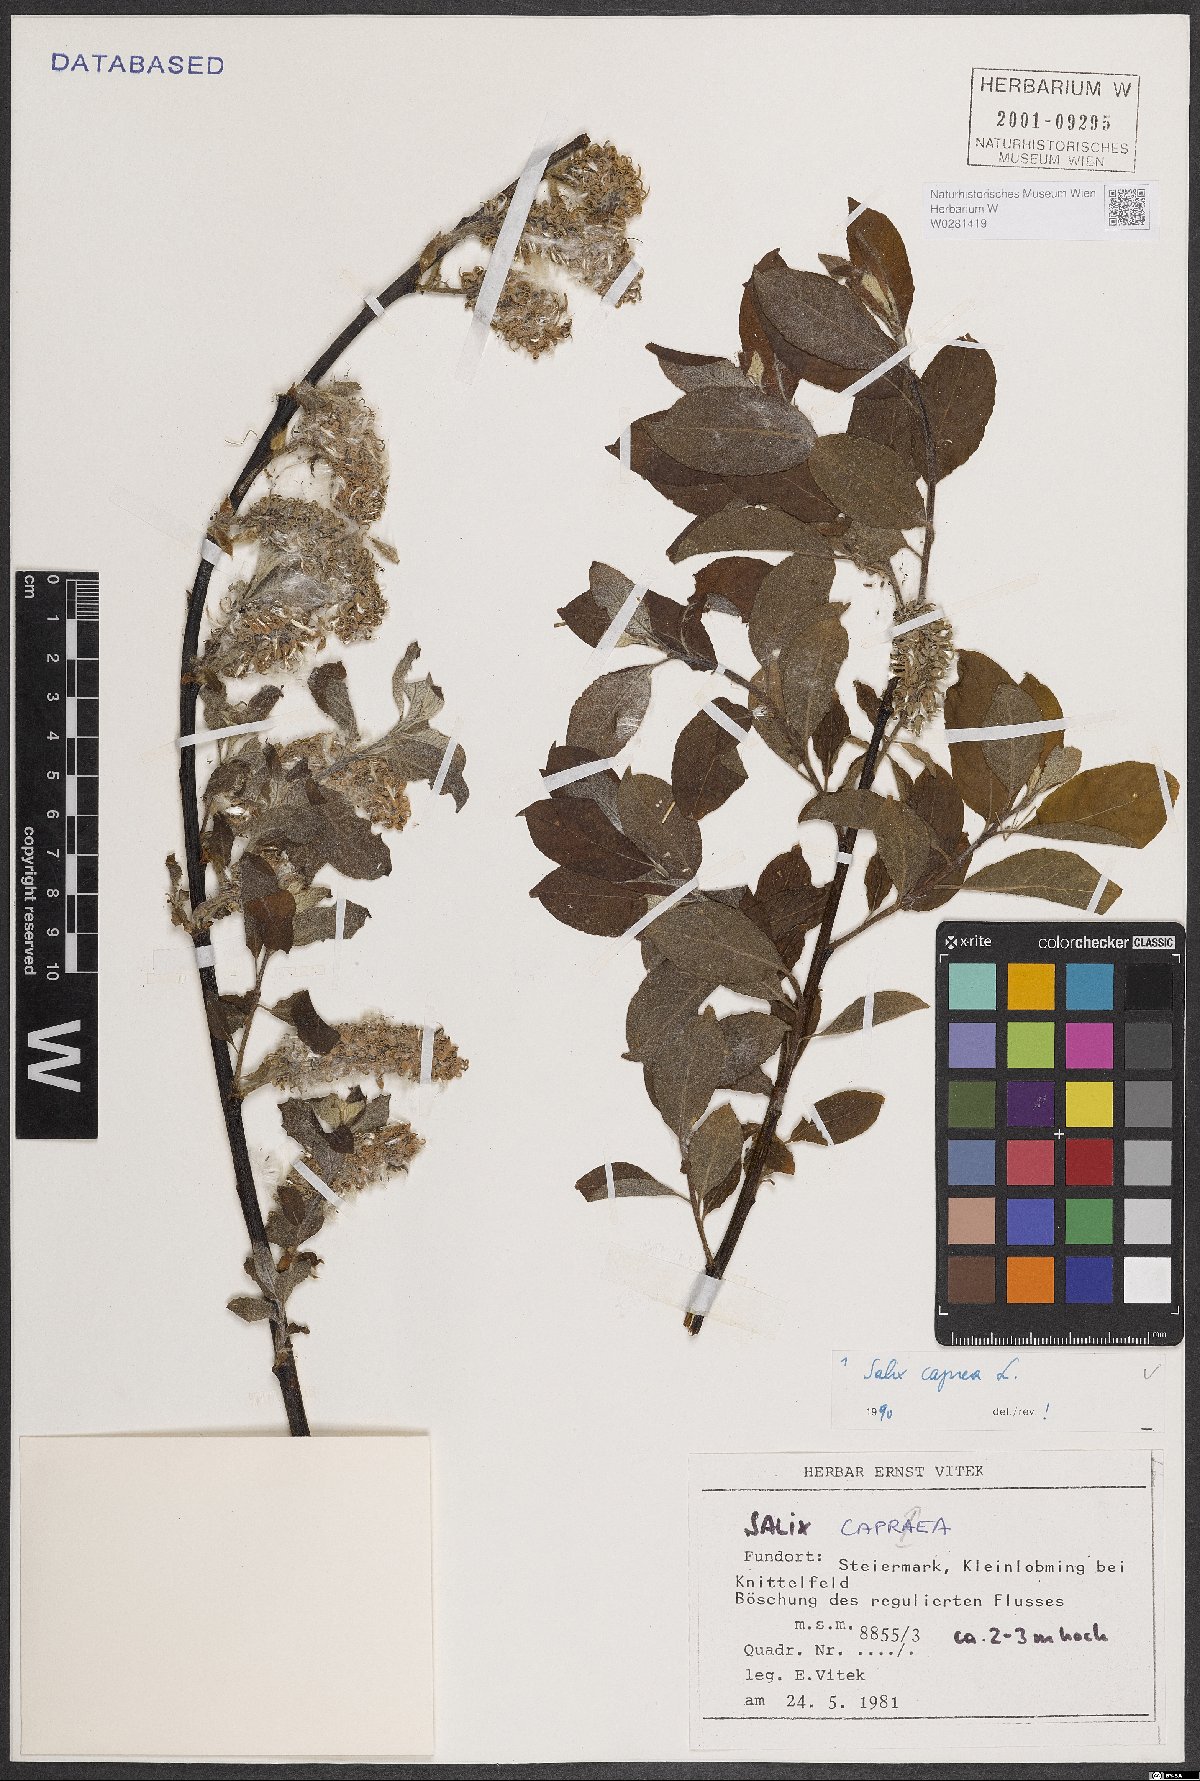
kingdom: Plantae
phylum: Tracheophyta
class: Magnoliopsida
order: Malpighiales
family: Salicaceae
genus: Salix
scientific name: Salix caprea
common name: Goat willow
